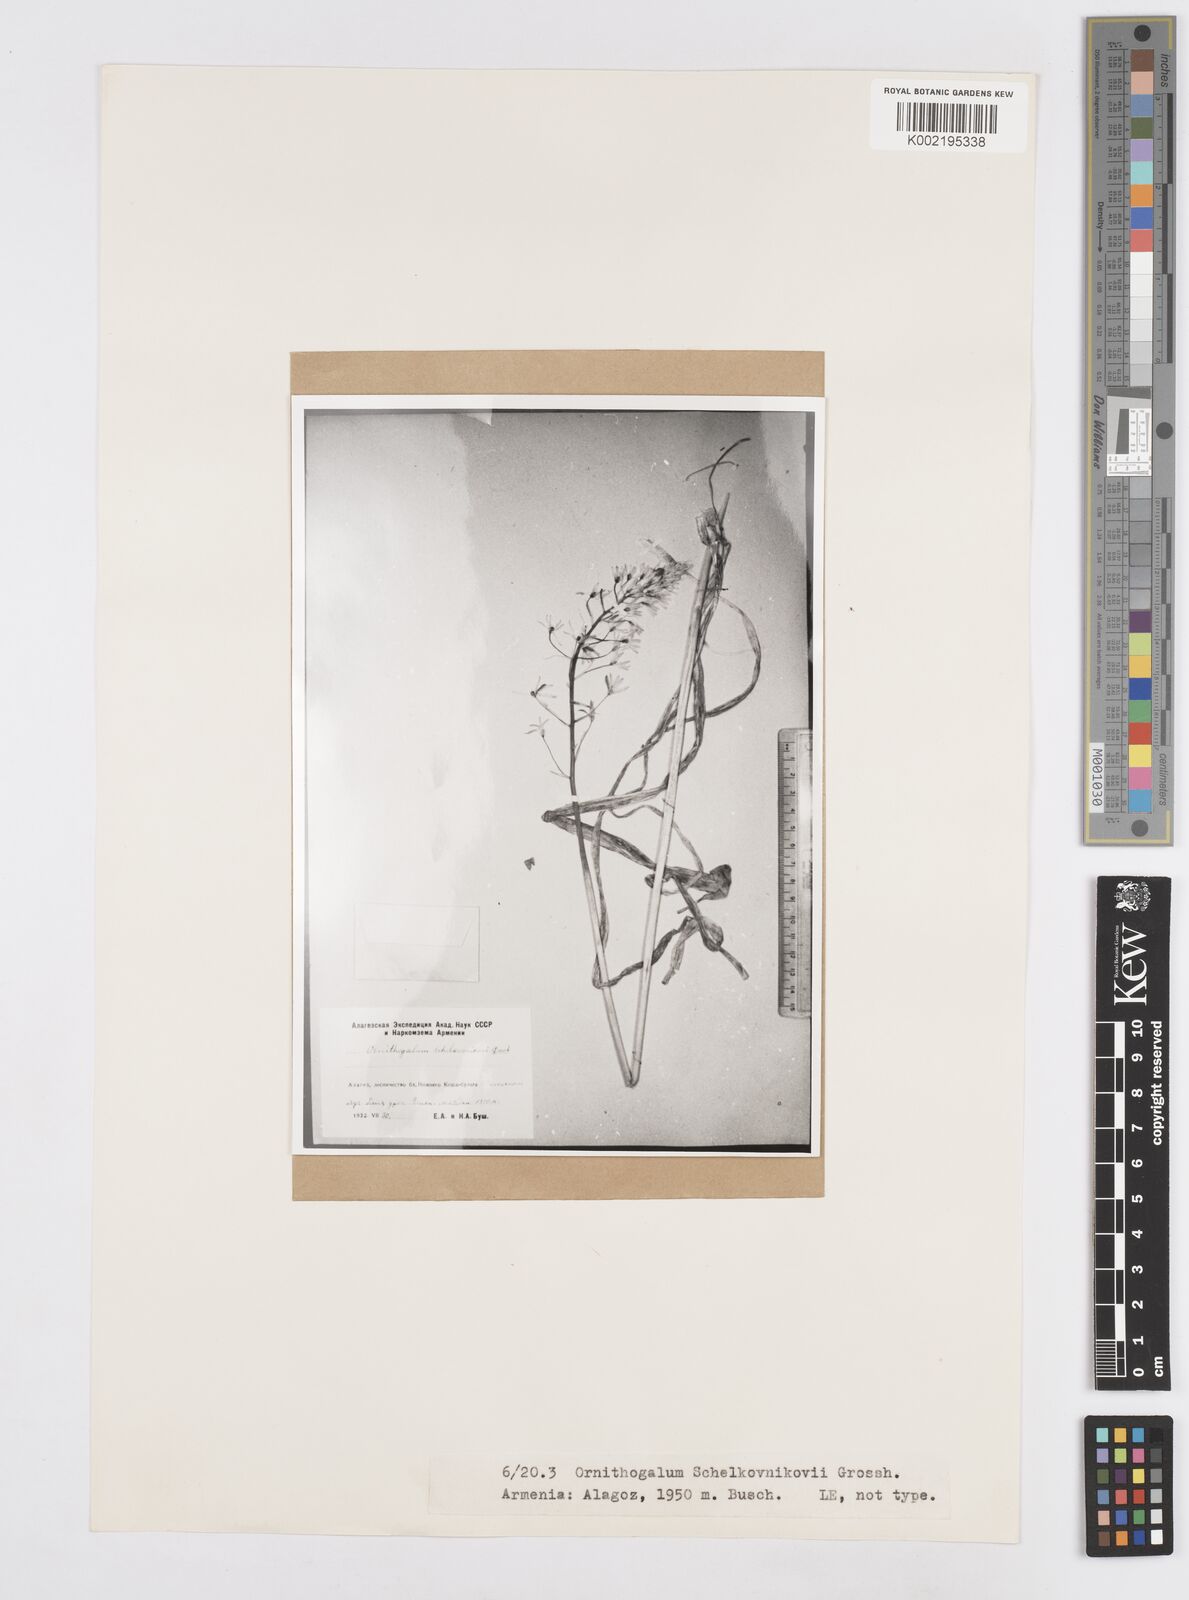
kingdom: Plantae
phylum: Tracheophyta
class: Liliopsida
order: Asparagales
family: Asparagaceae
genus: Ornithogalum
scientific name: Ornithogalum arcuatum
